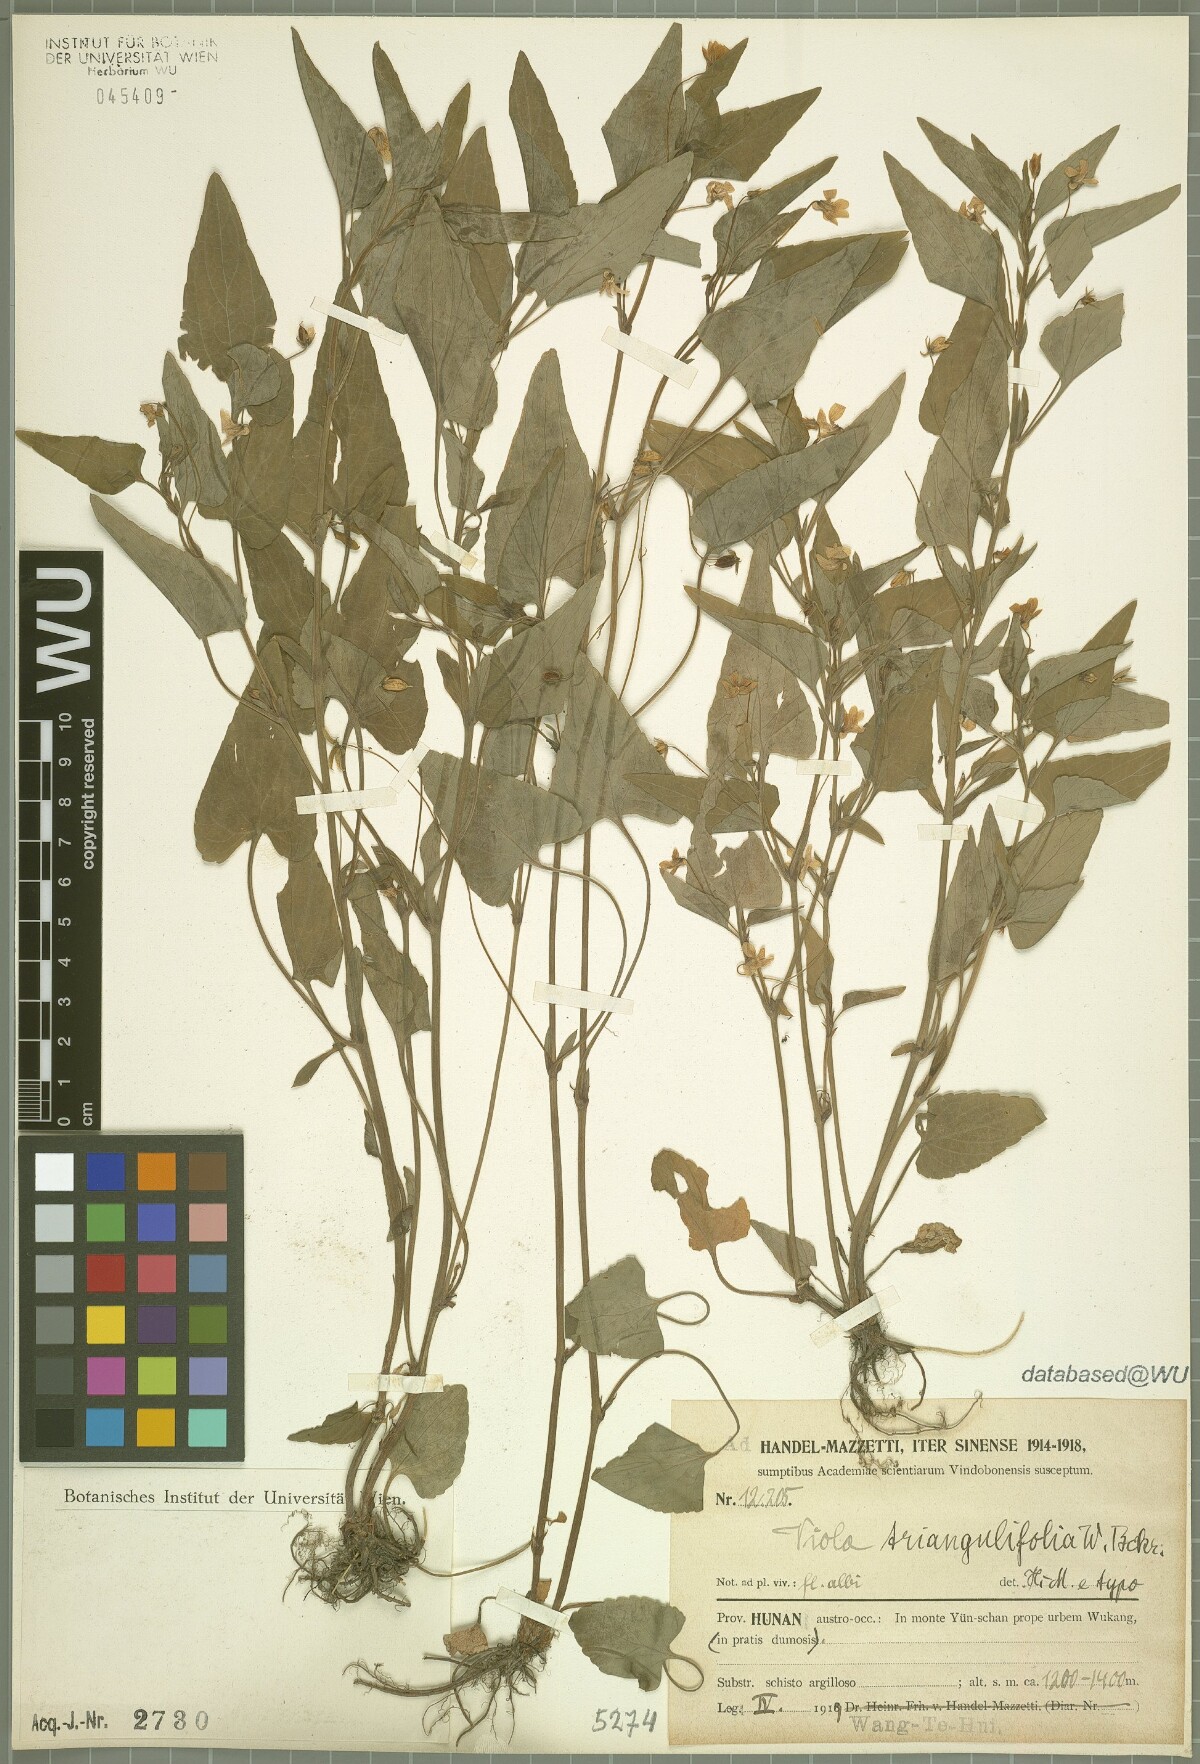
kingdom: Plantae
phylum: Tracheophyta
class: Magnoliopsida
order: Malpighiales
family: Violaceae
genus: Viola
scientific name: Viola triangulifolia
